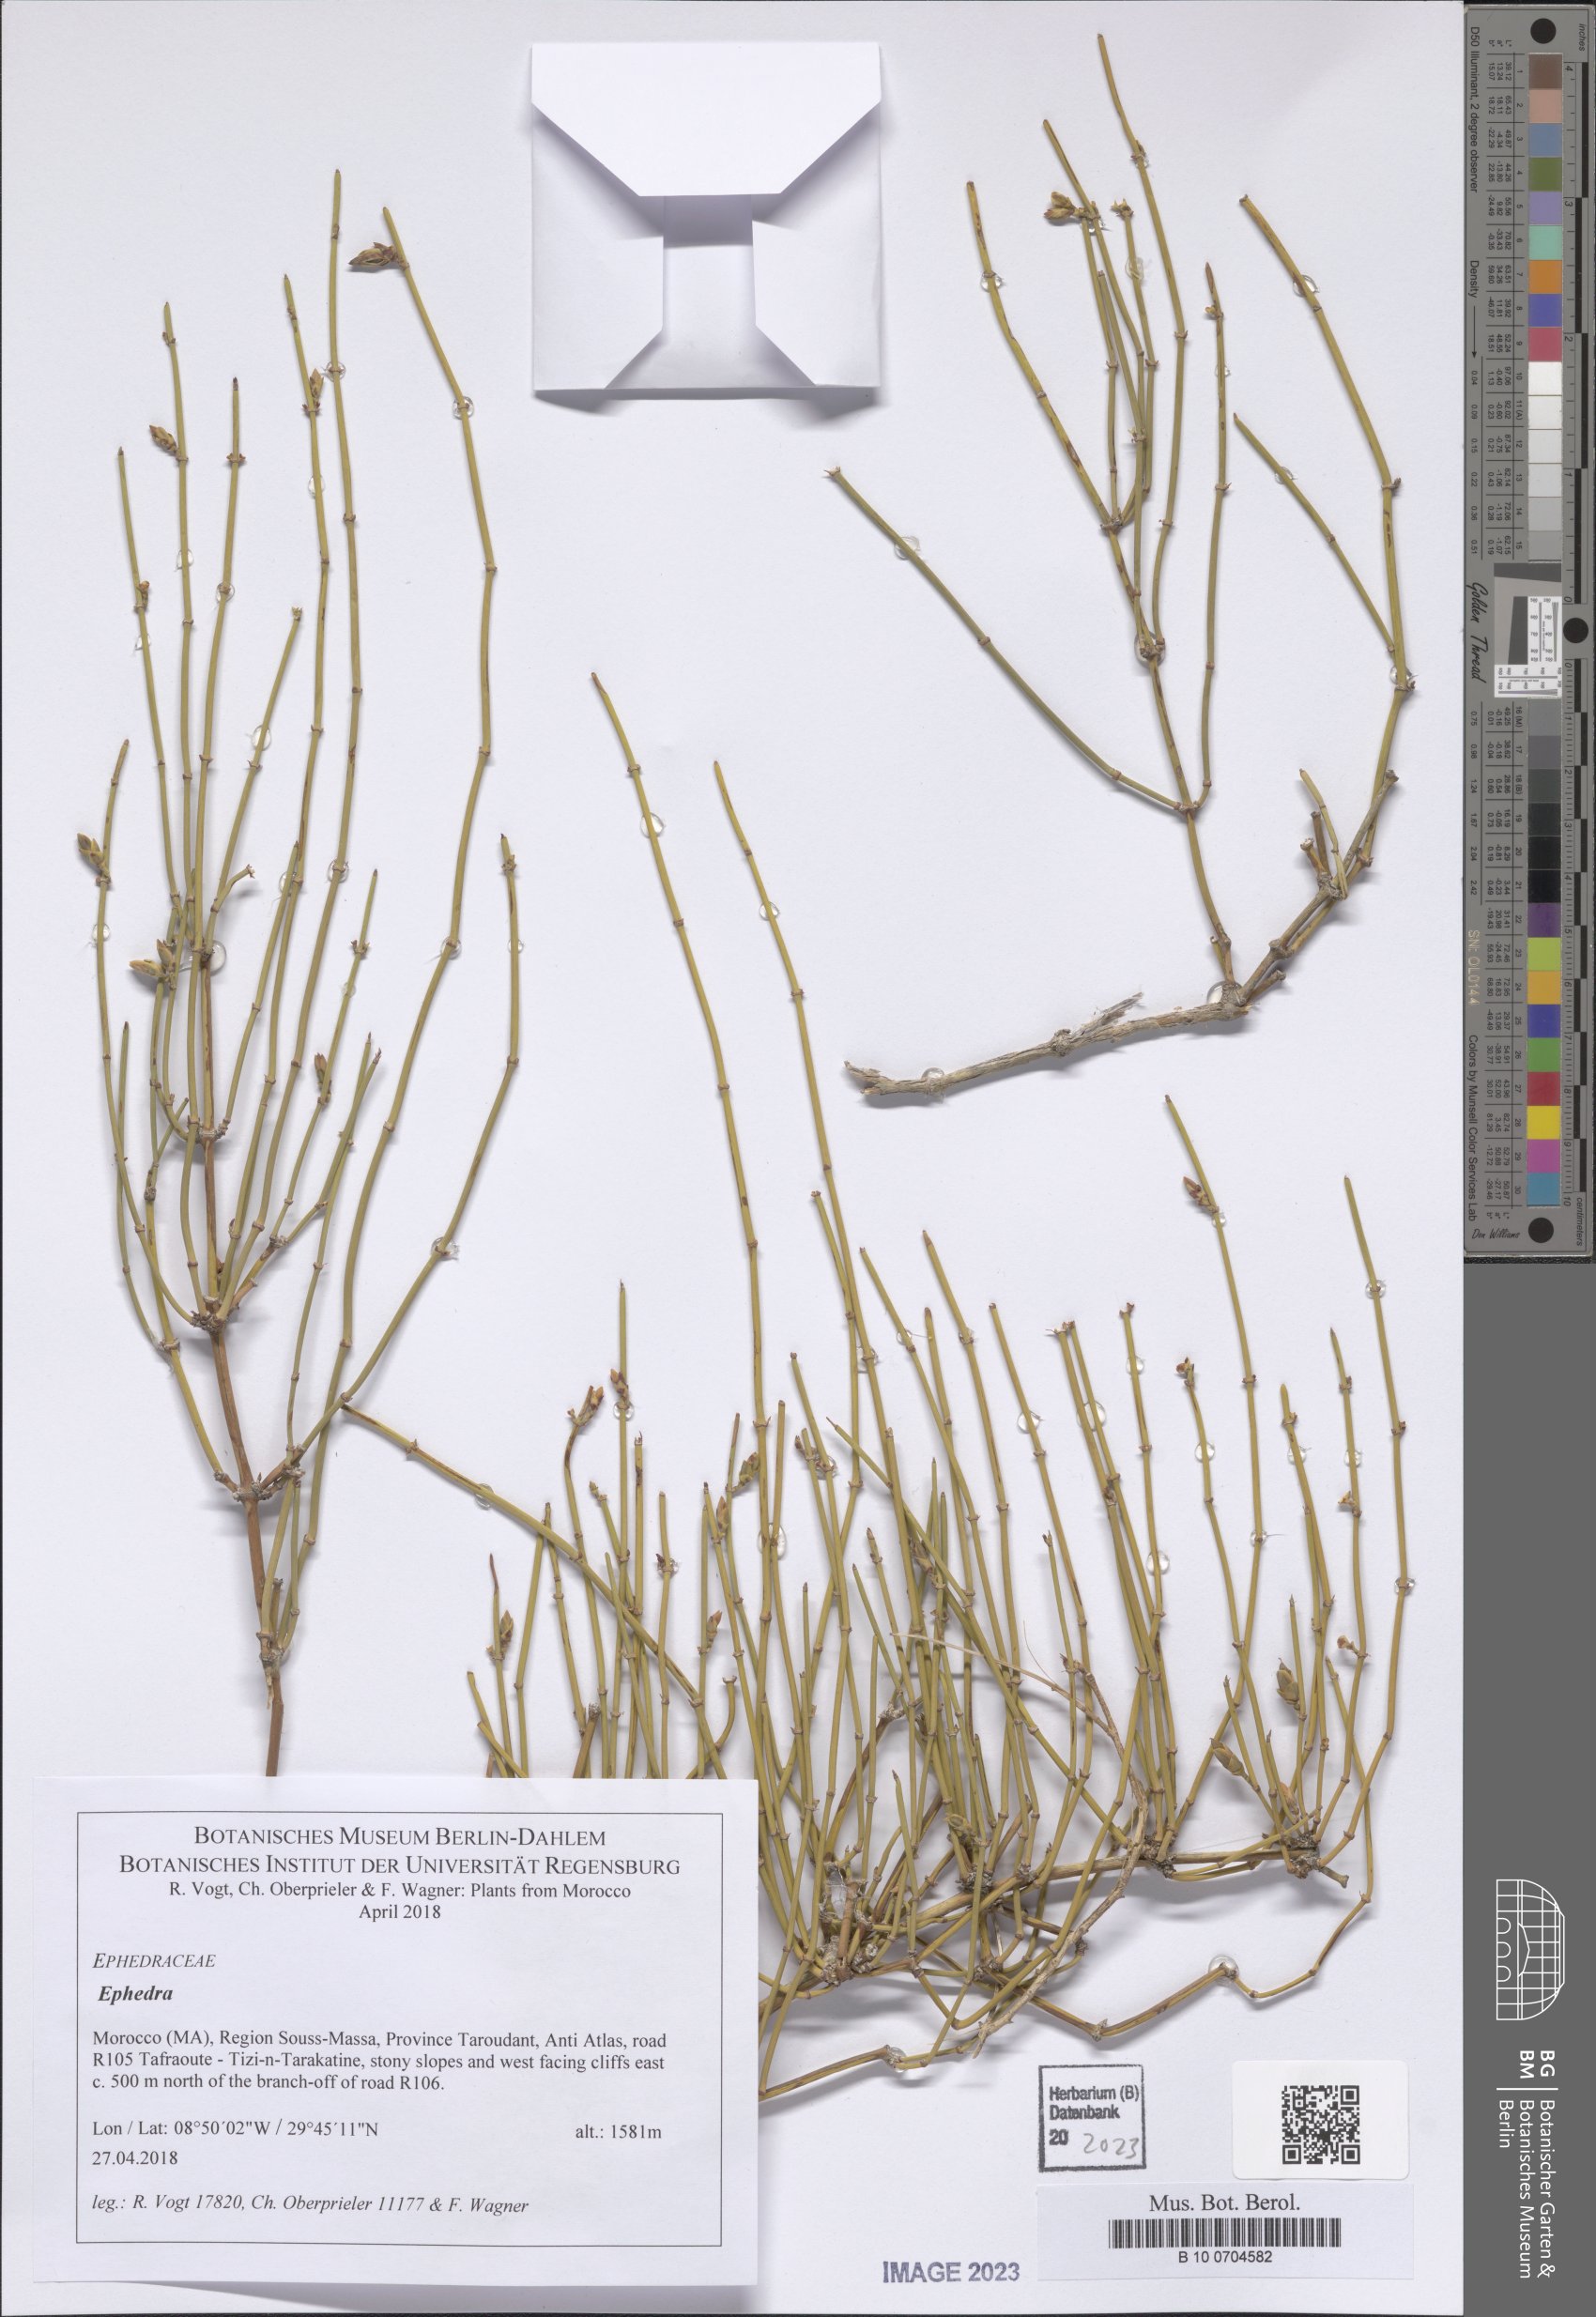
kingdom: Plantae
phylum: Tracheophyta
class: Gnetopsida
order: Ephedrales
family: Ephedraceae
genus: Ephedra
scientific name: Ephedra
